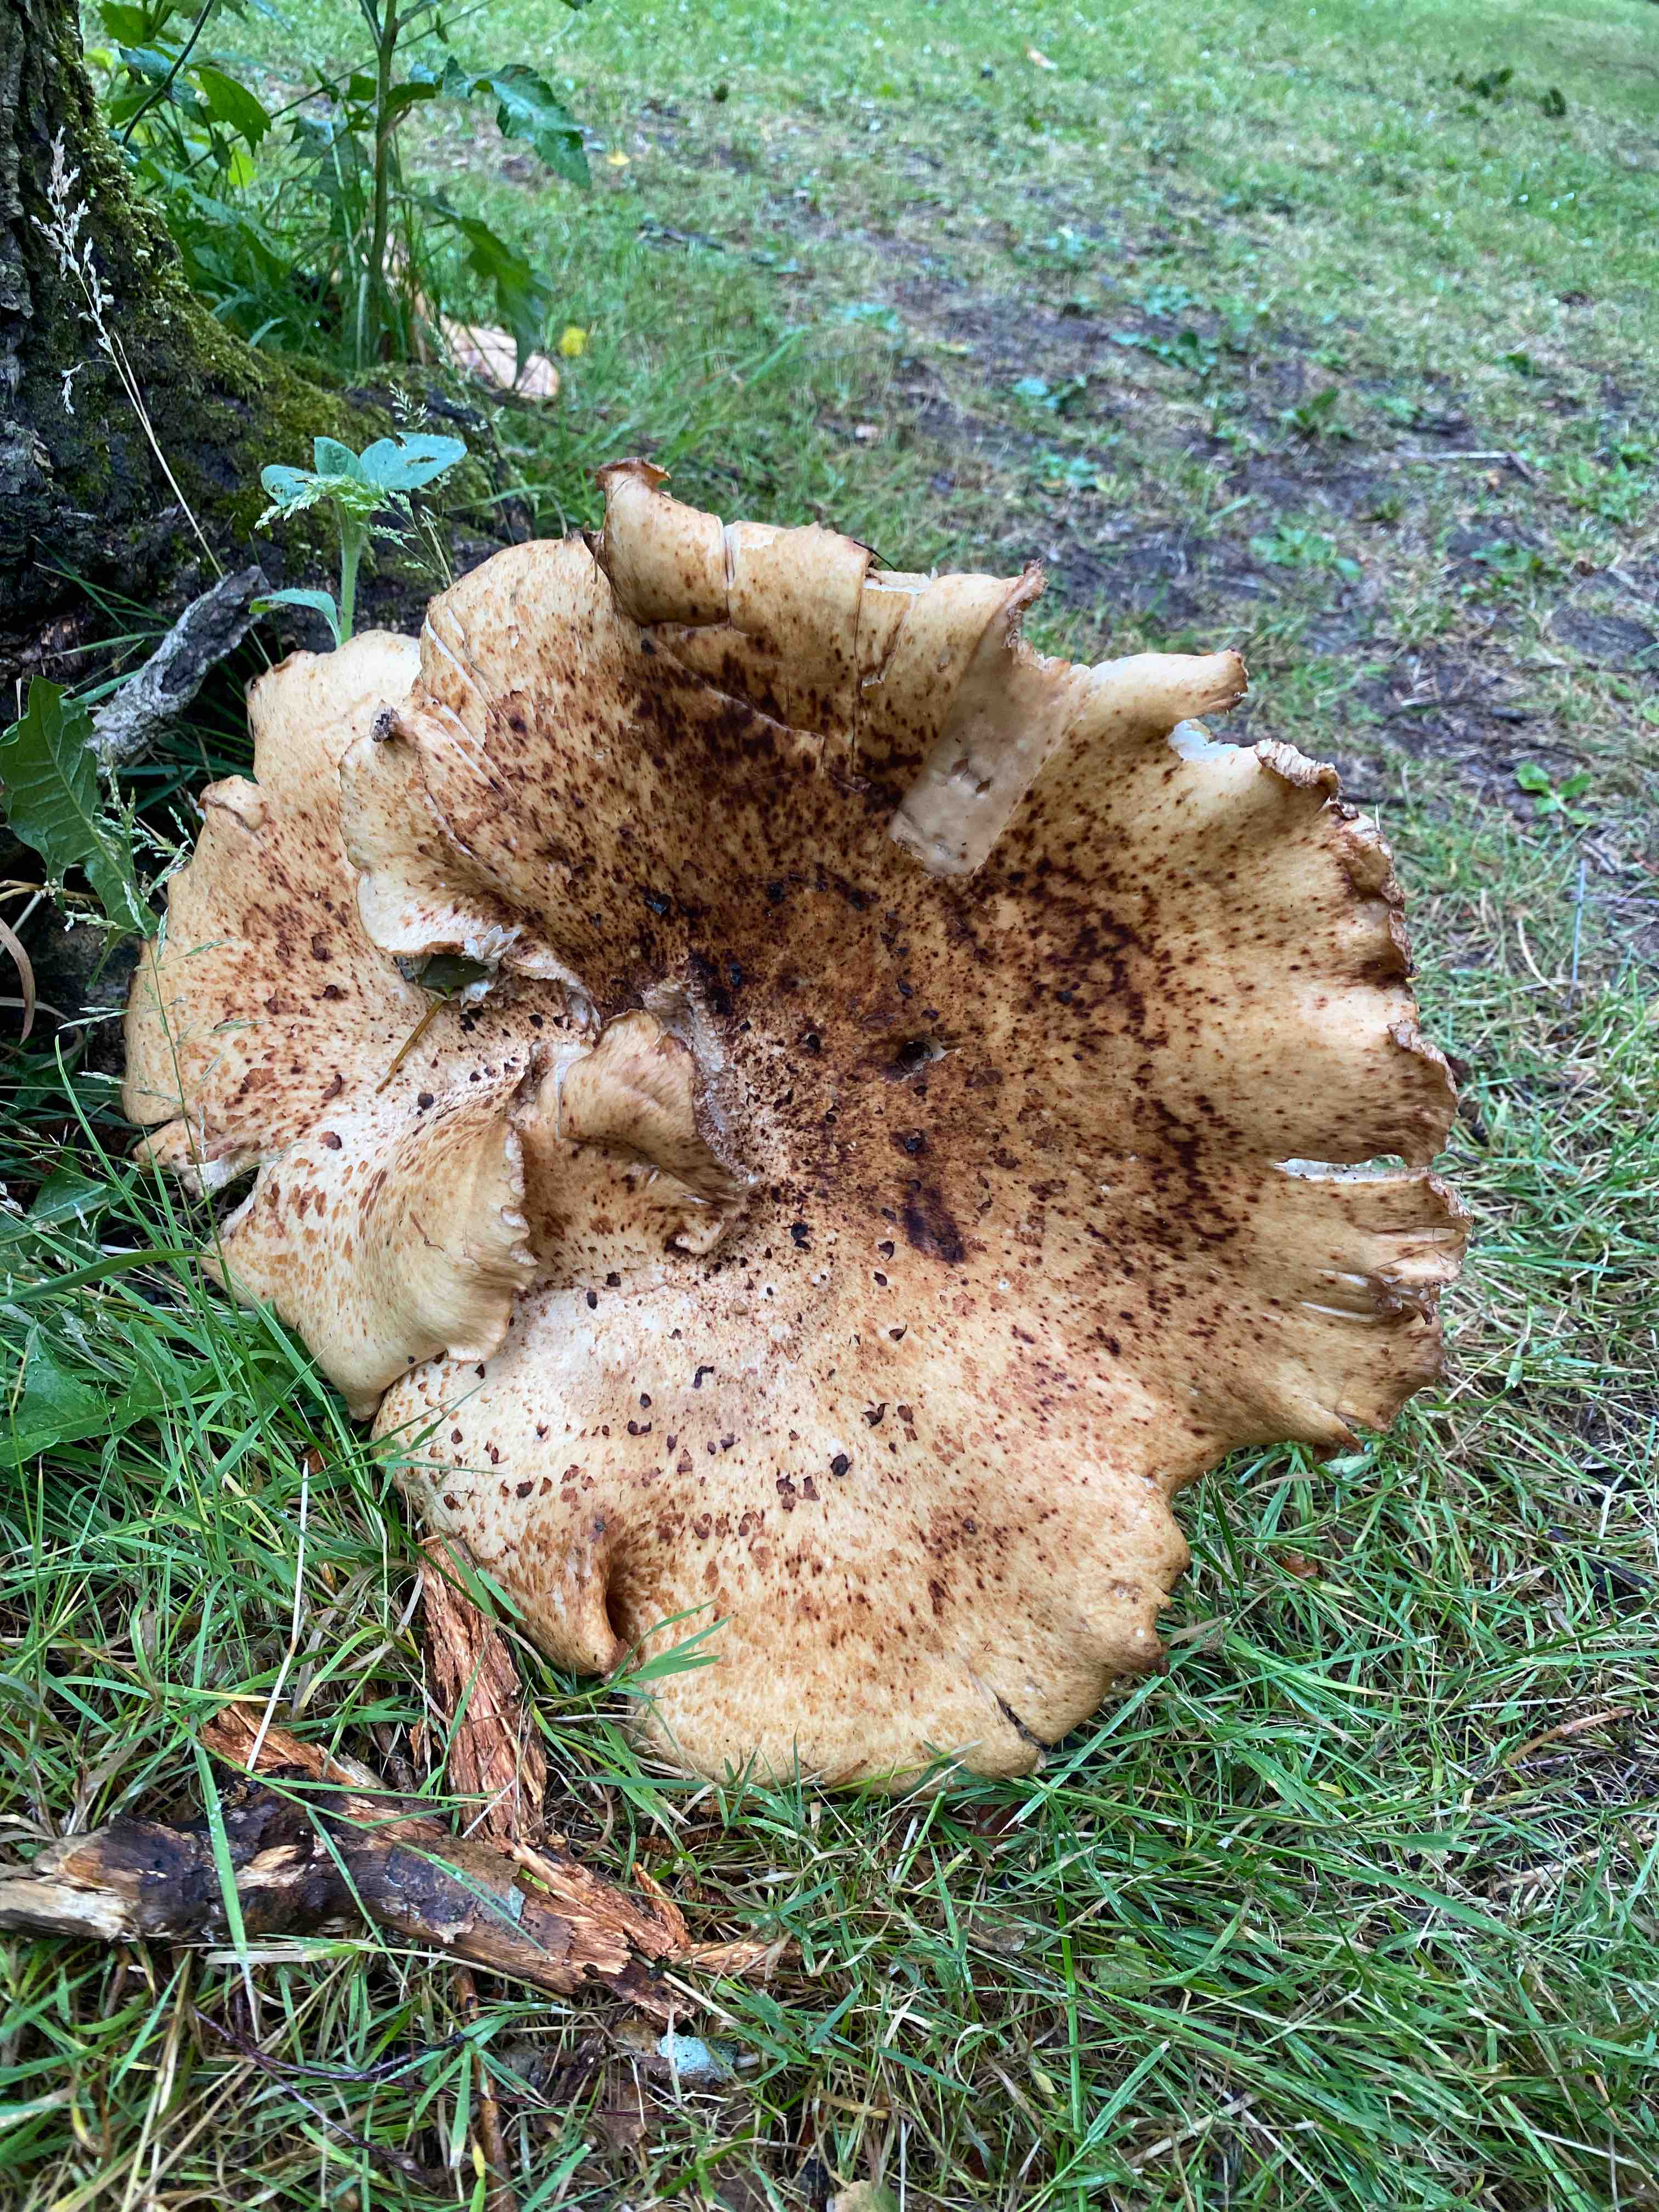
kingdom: Fungi
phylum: Basidiomycota
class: Agaricomycetes
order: Polyporales
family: Polyporaceae
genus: Cerioporus
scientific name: Cerioporus squamosus
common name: skællet stilkporesvamp
